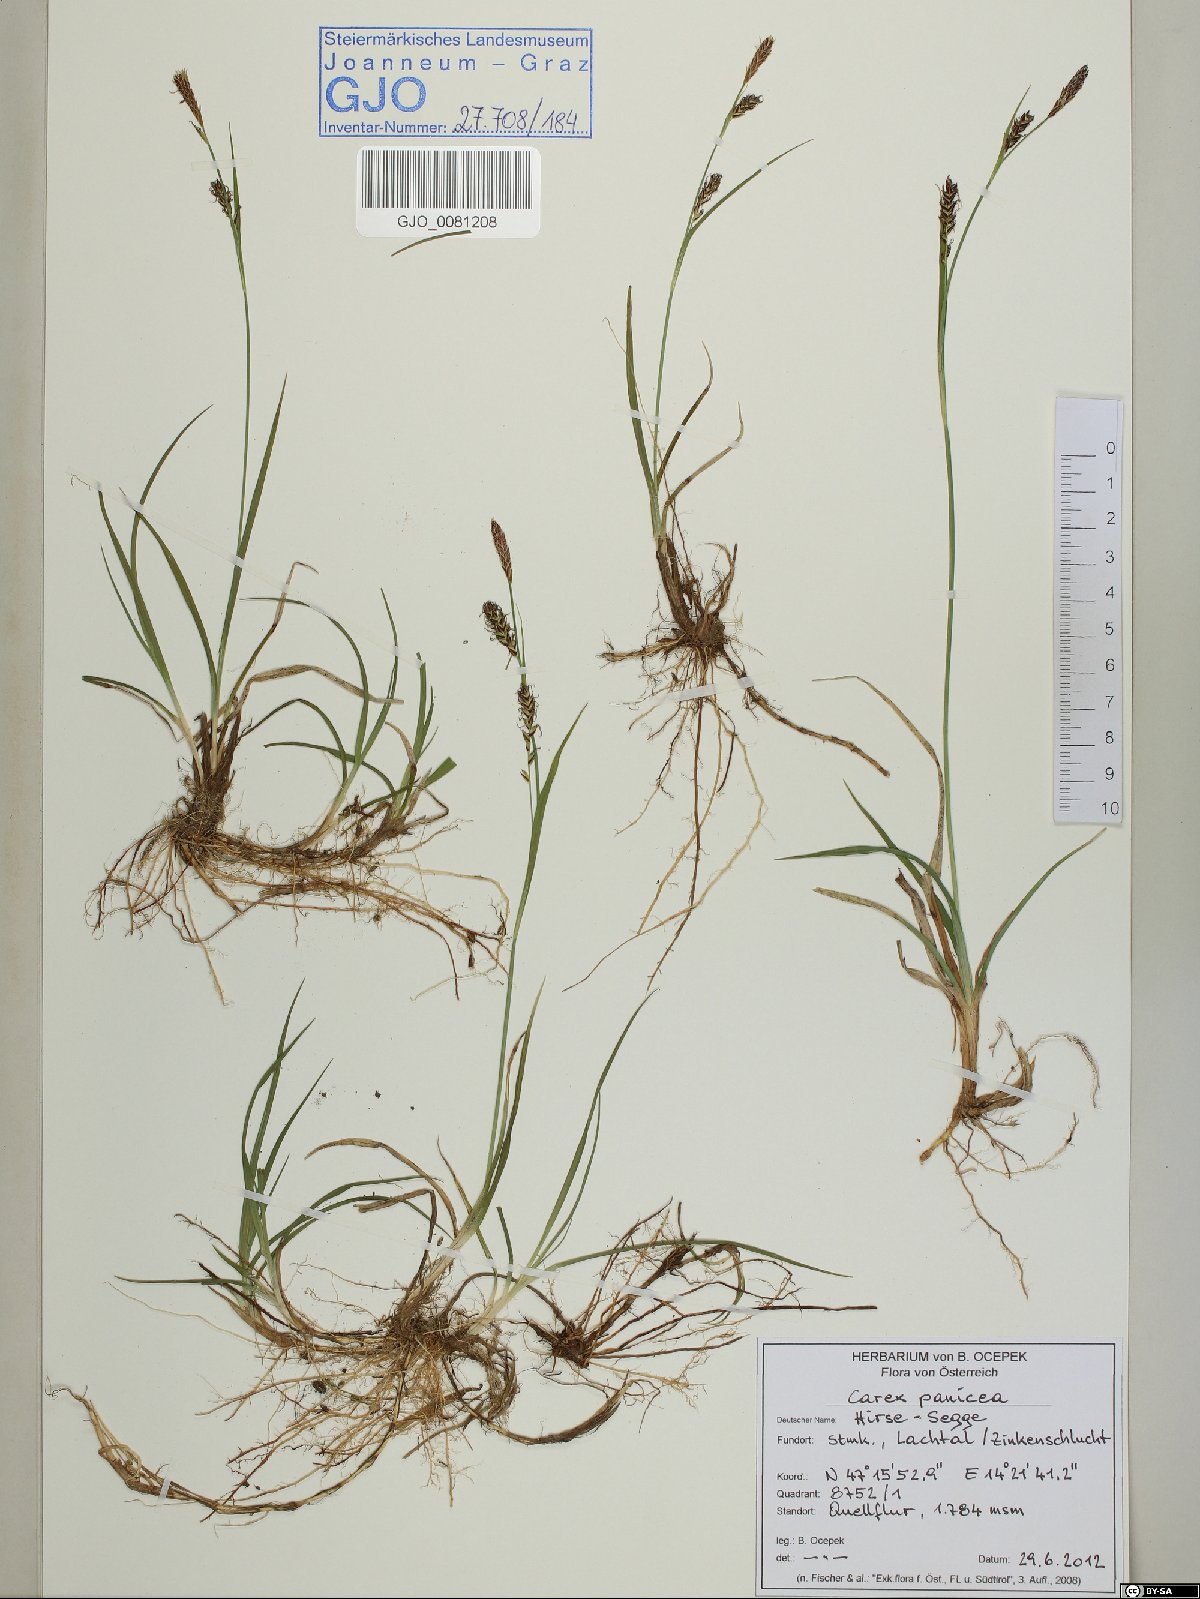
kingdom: Plantae
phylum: Tracheophyta
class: Liliopsida
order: Poales
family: Cyperaceae
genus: Carex
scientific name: Carex panicea
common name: Carnation sedge
